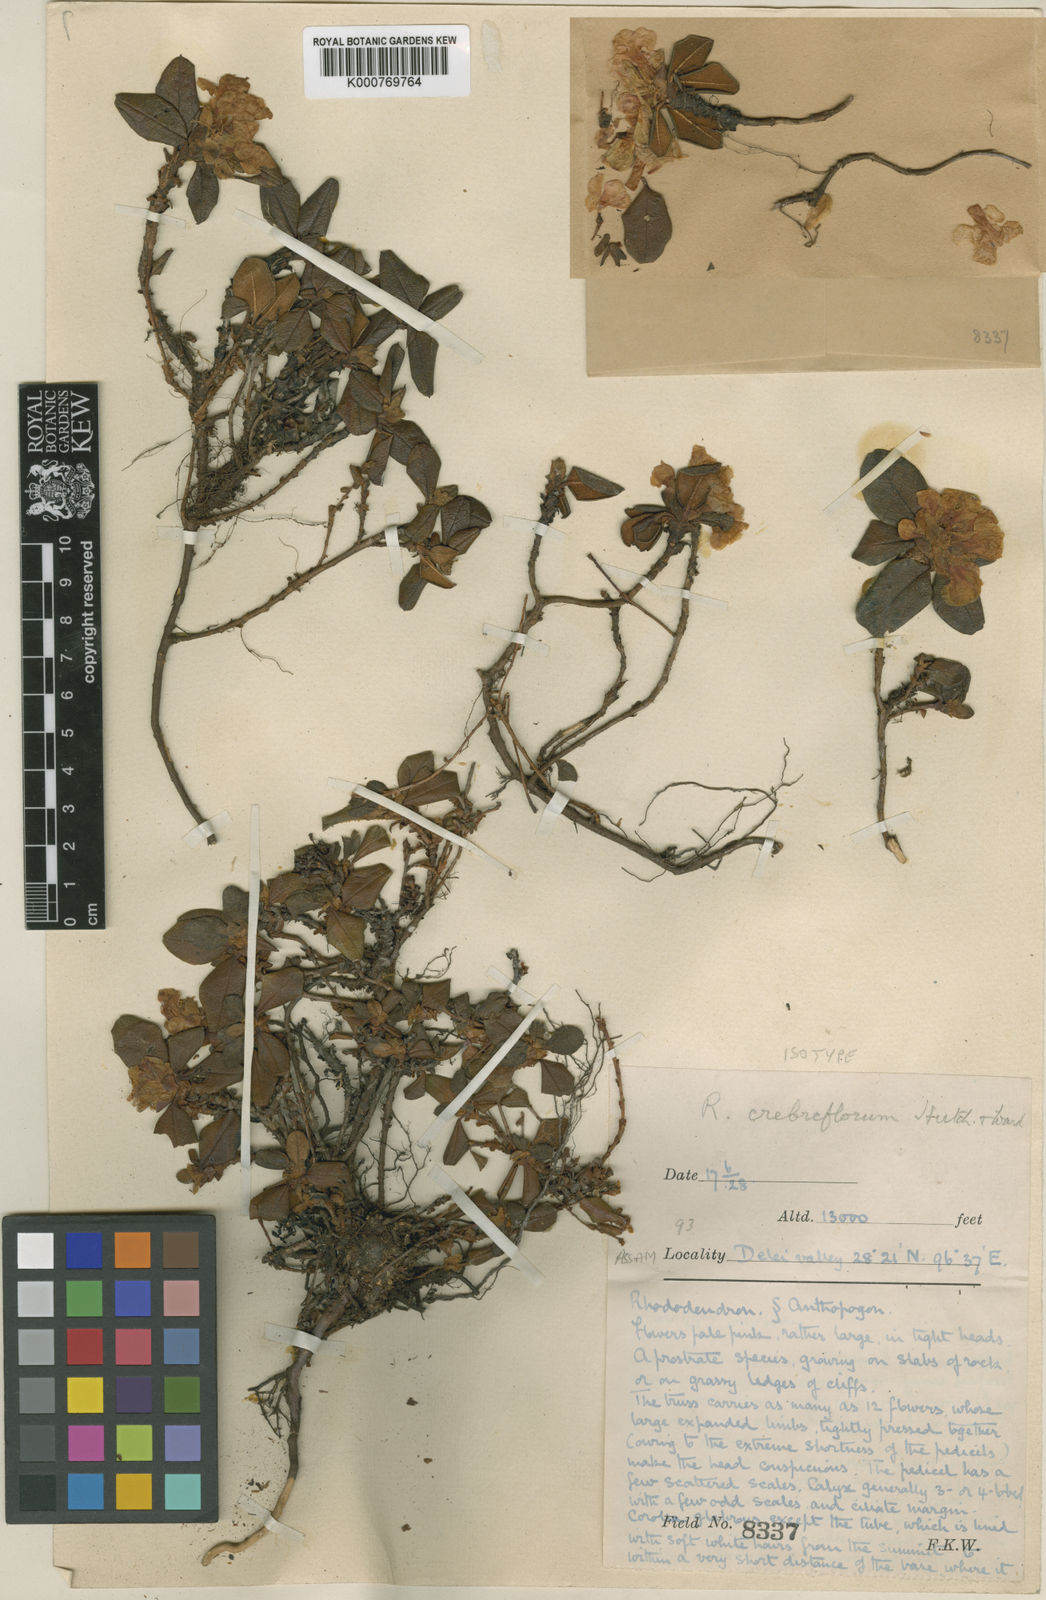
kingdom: Plantae
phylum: Tracheophyta
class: Magnoliopsida
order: Ericales
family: Ericaceae
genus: Rhododendron
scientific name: Rhododendron cephalanthum
